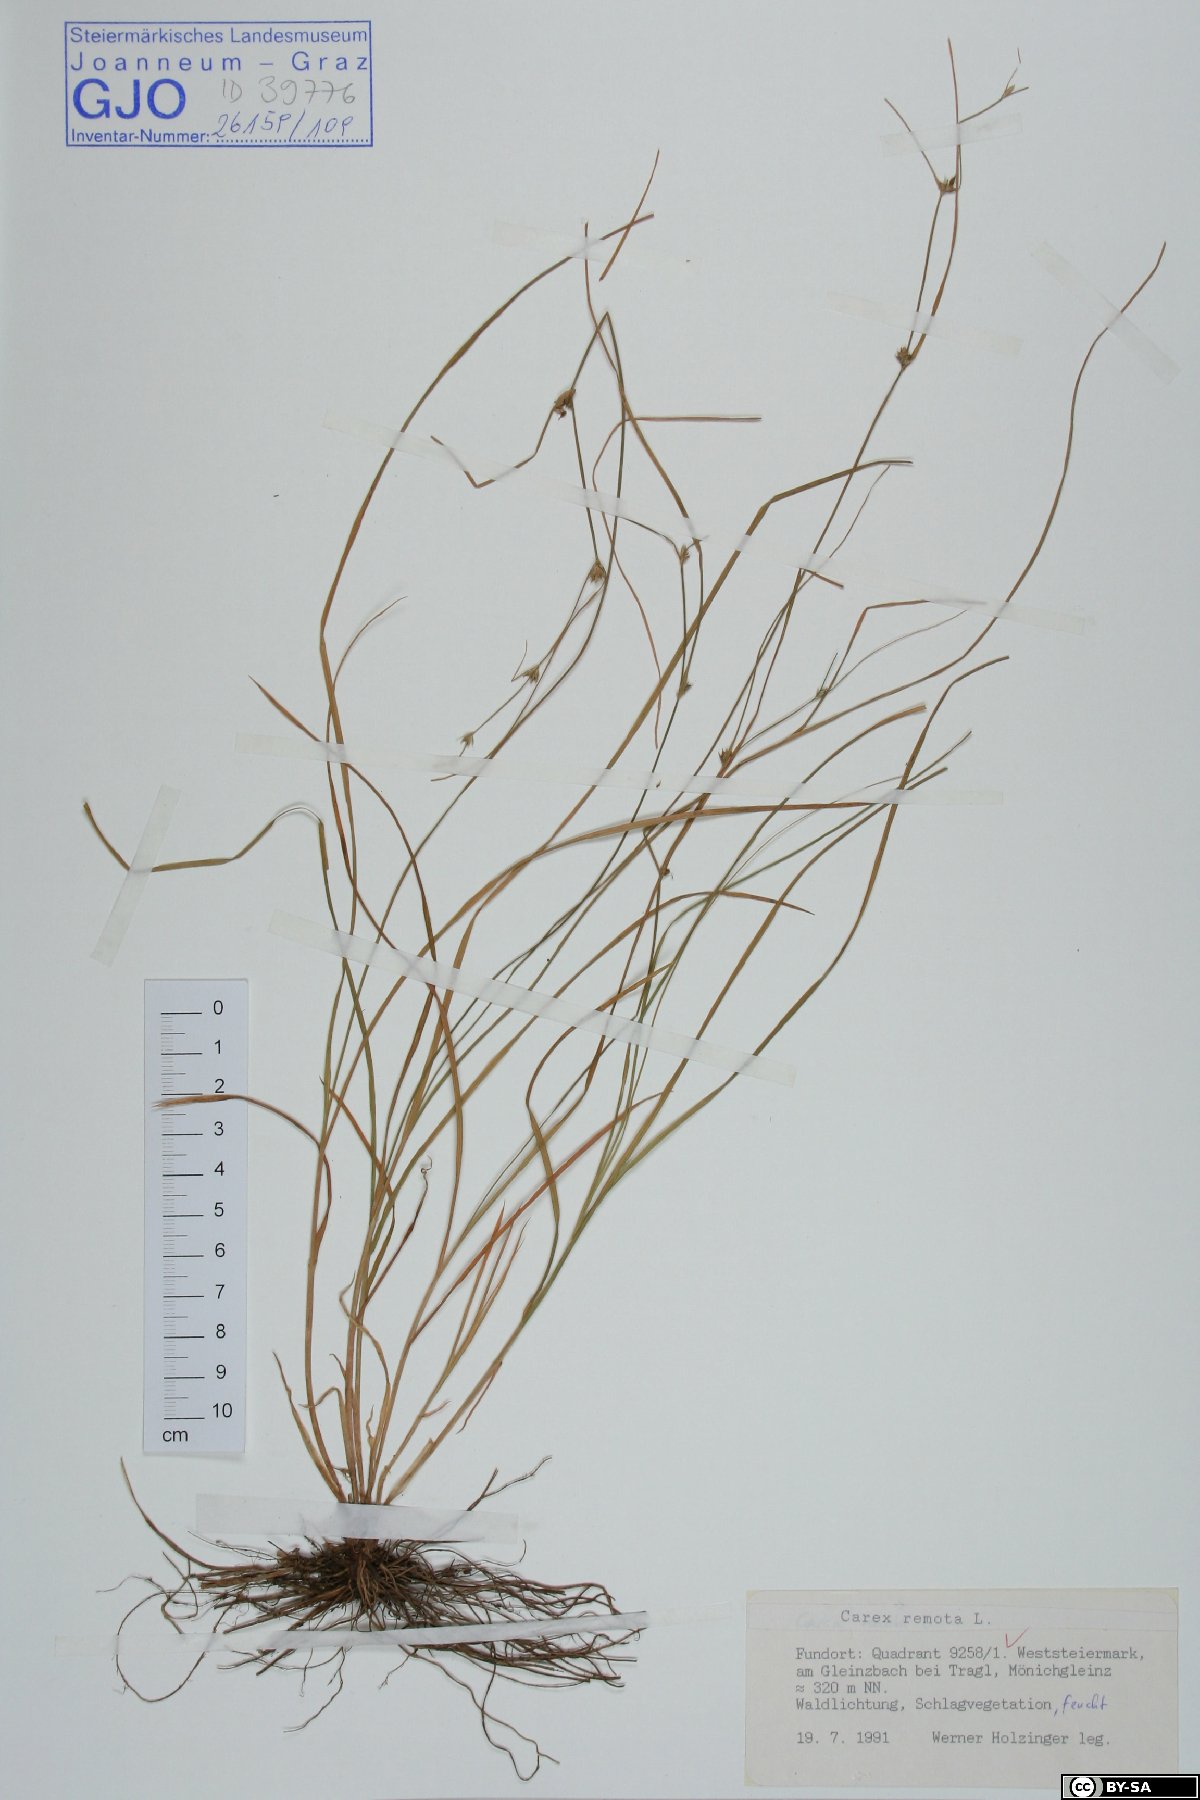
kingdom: Plantae
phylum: Tracheophyta
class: Liliopsida
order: Poales
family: Cyperaceae
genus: Carex
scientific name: Carex remota
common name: Remote sedge
